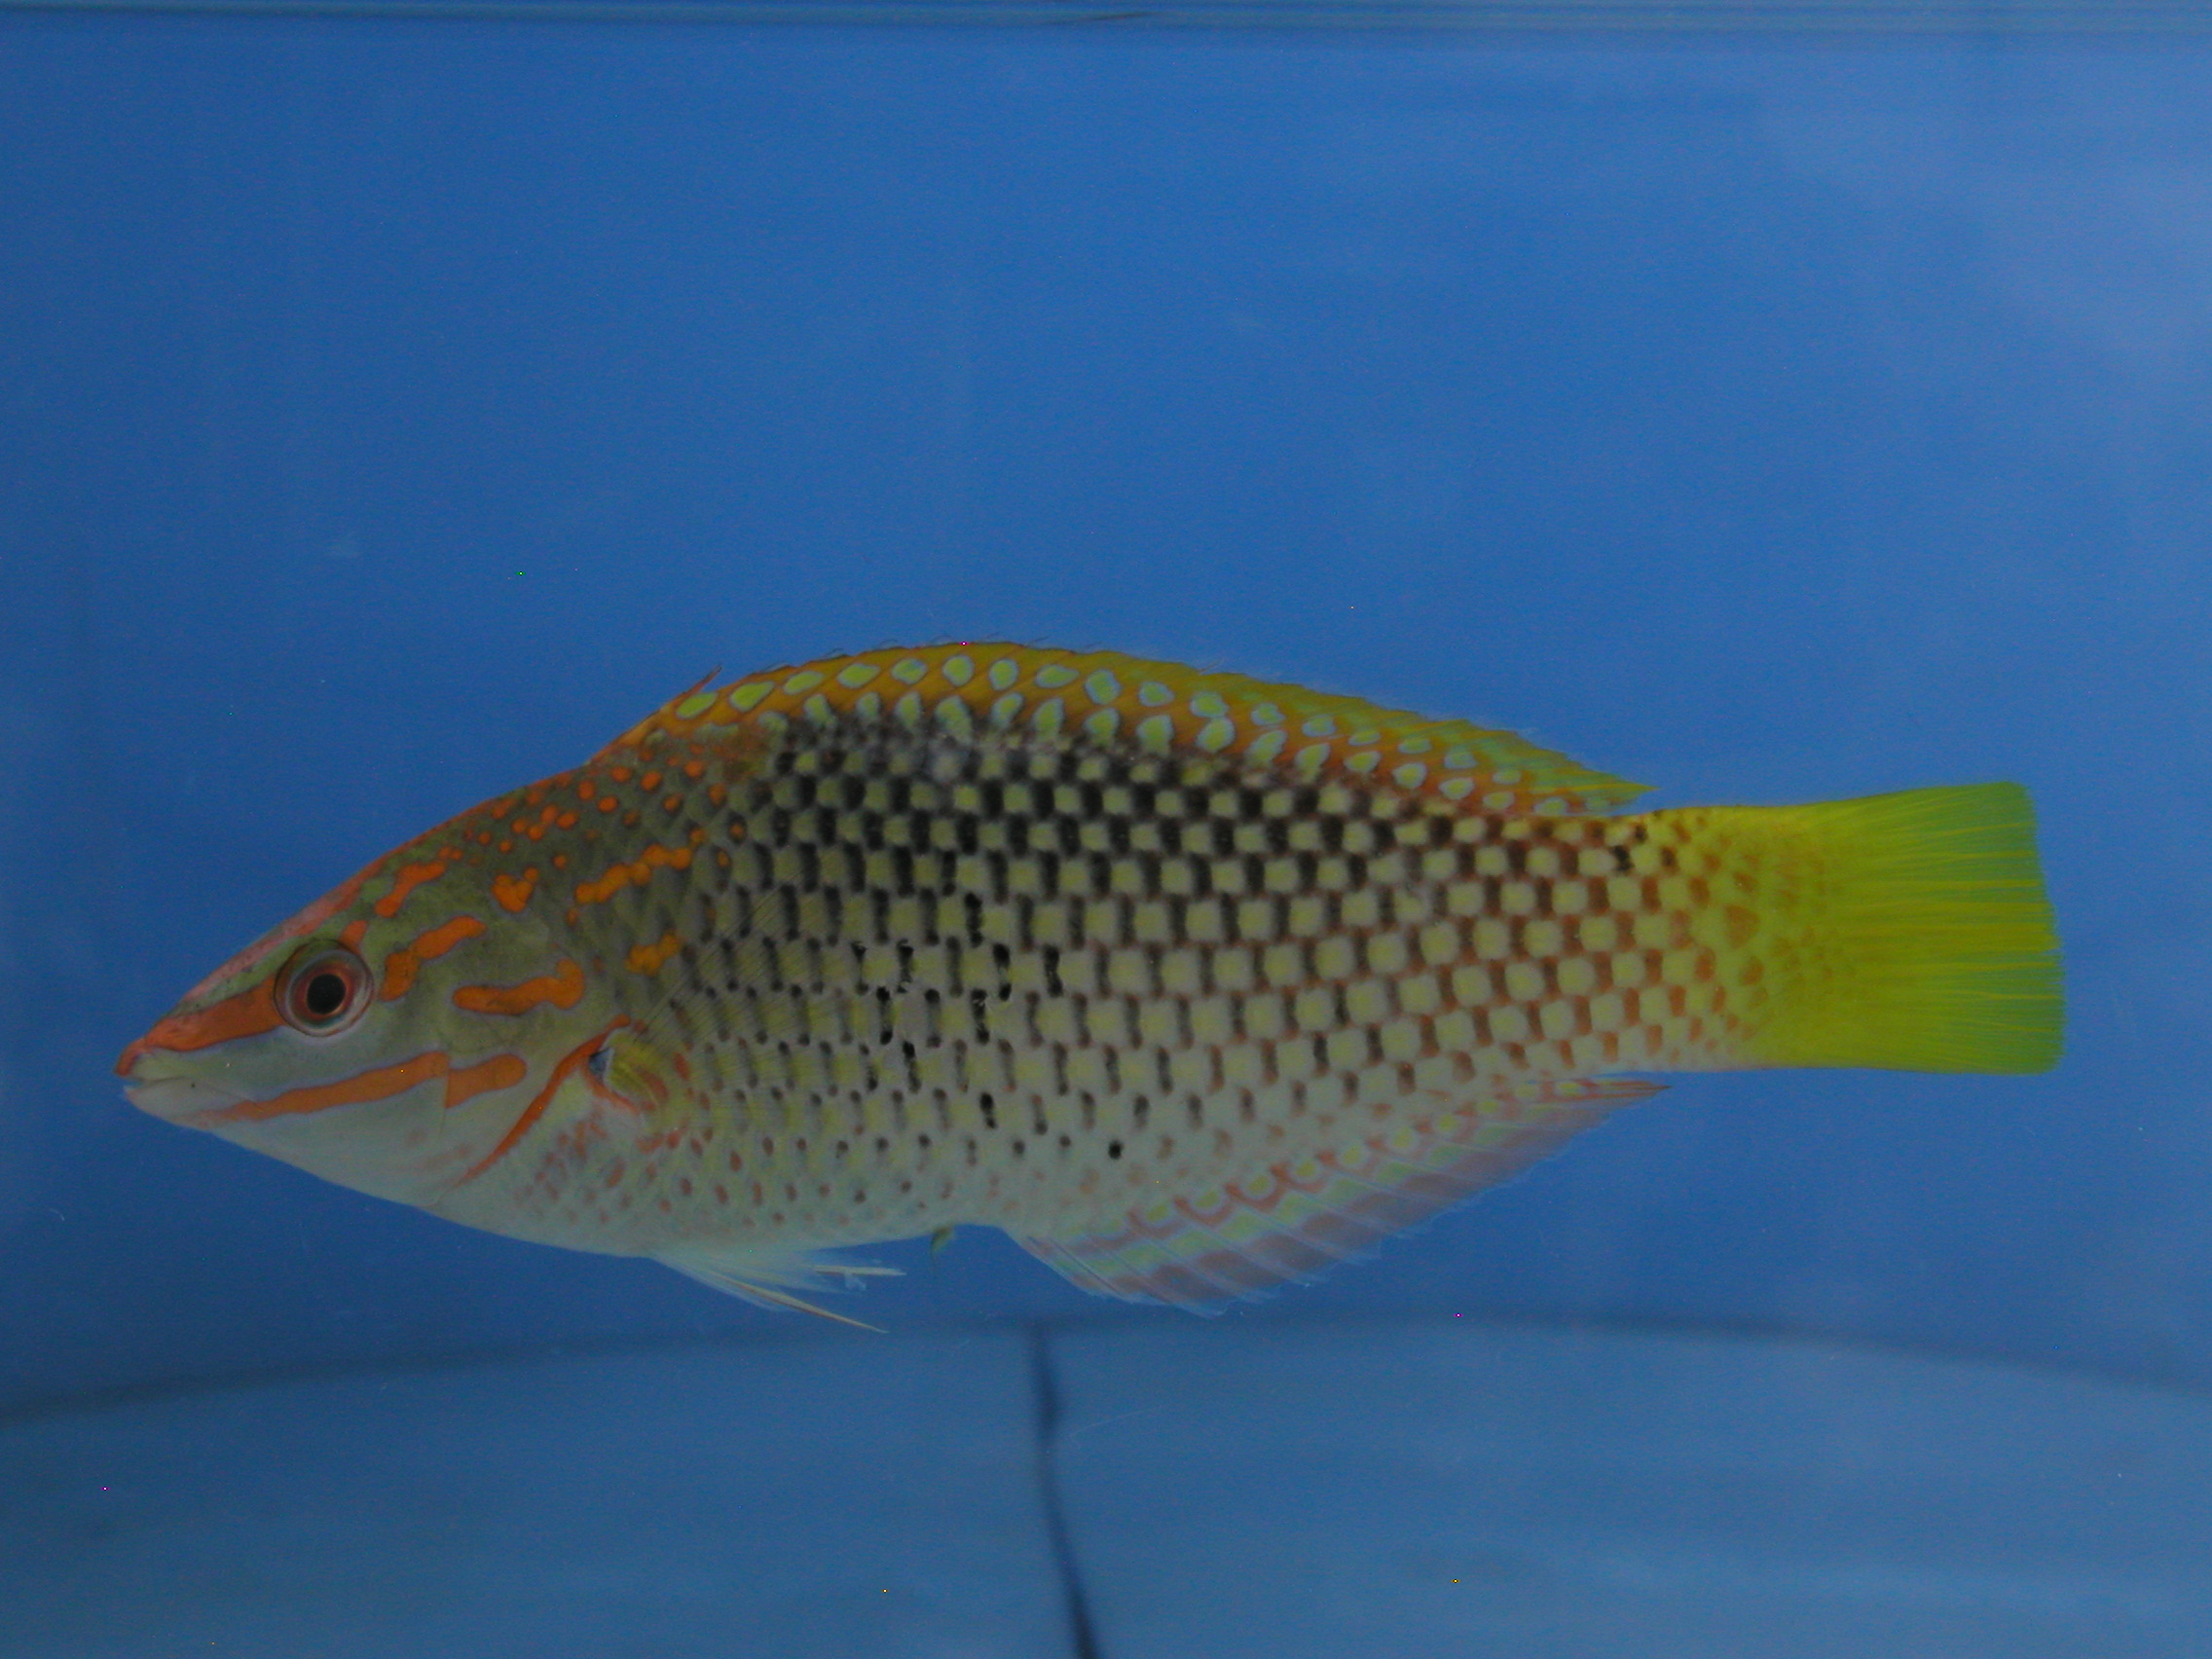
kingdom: Animalia
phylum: Chordata
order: Perciformes
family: Labridae
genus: Halichoeres
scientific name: Halichoeres hortulanus
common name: Checkerboard wrasse
